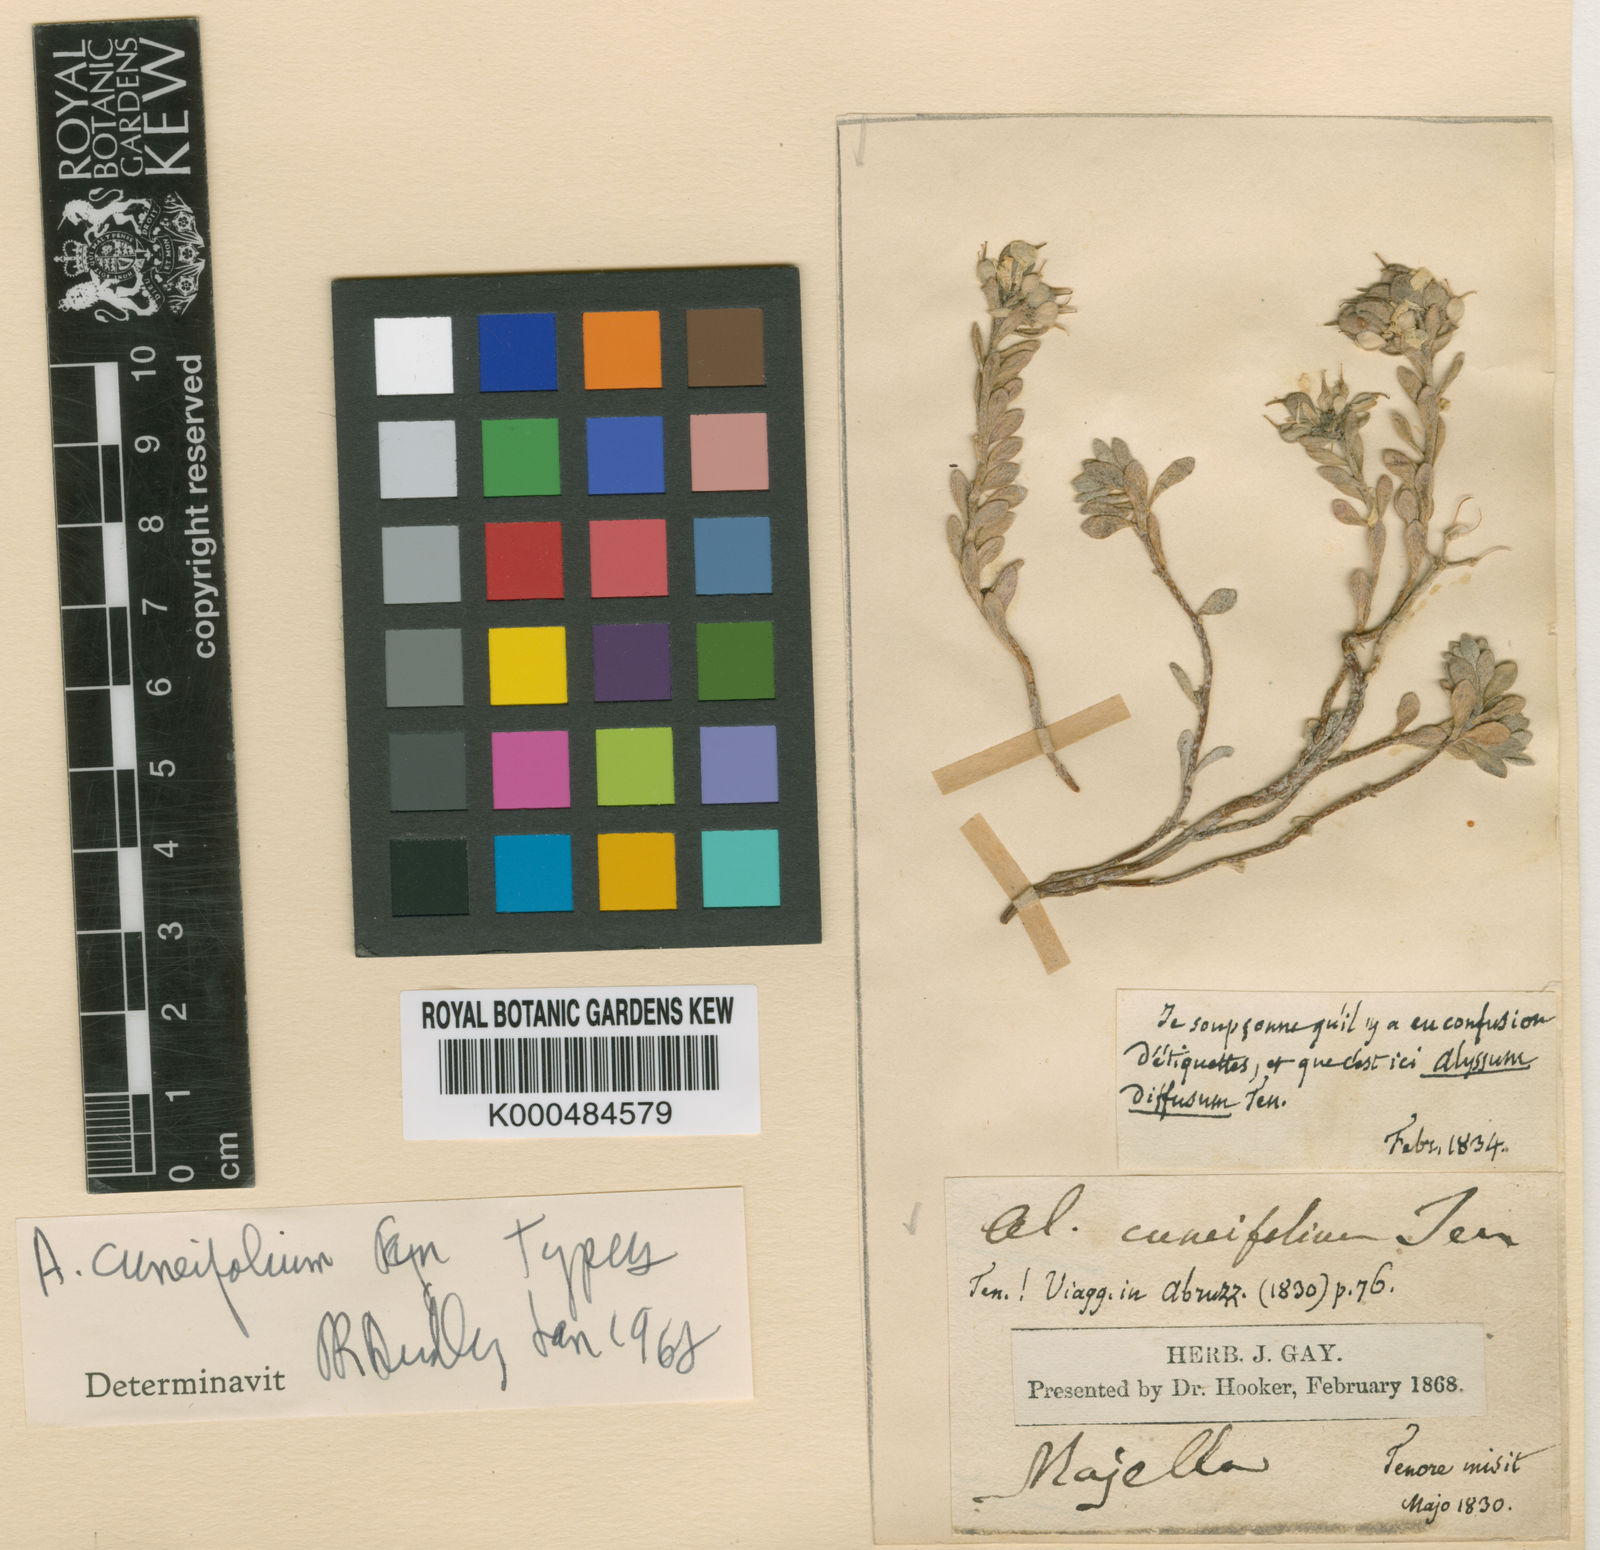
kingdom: Plantae
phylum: Tracheophyta
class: Magnoliopsida
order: Brassicales
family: Brassicaceae
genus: Alyssum
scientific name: Alyssum cuneifolium
